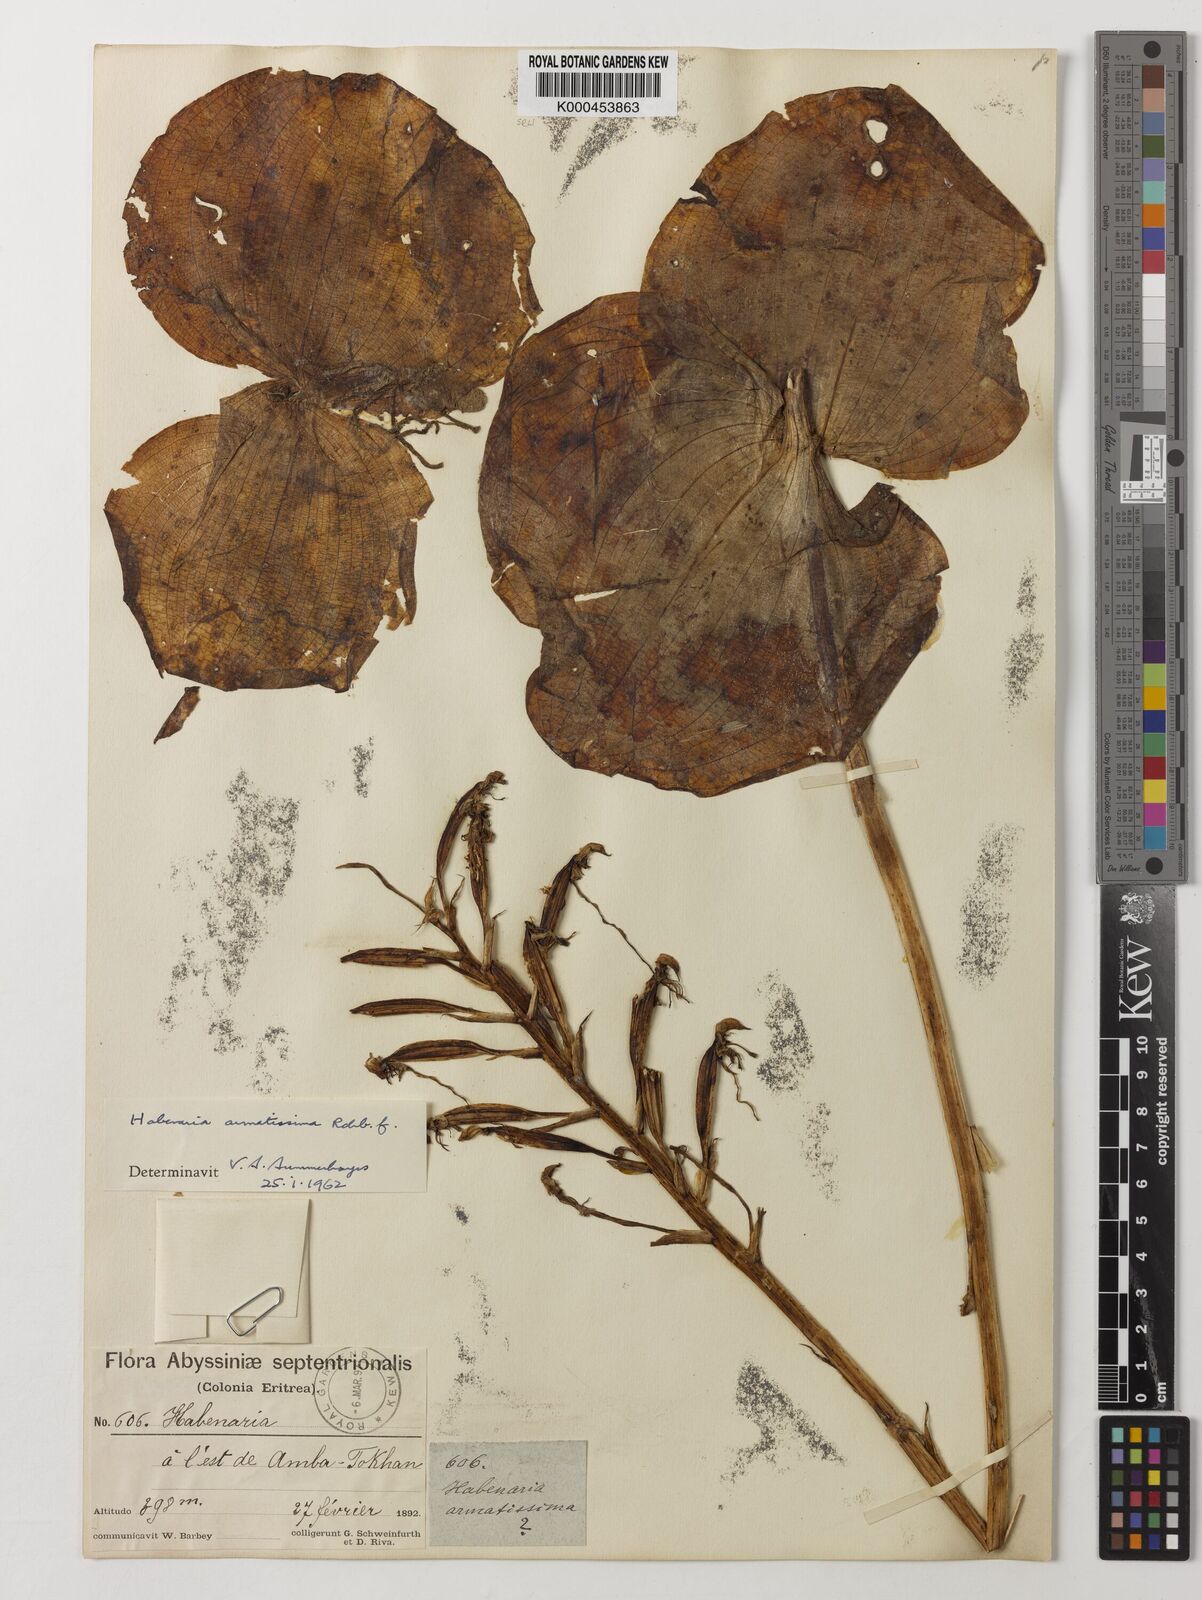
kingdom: Plantae
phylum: Tracheophyta
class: Liliopsida
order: Asparagales
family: Orchidaceae
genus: Habenaria
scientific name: Habenaria armatissima
